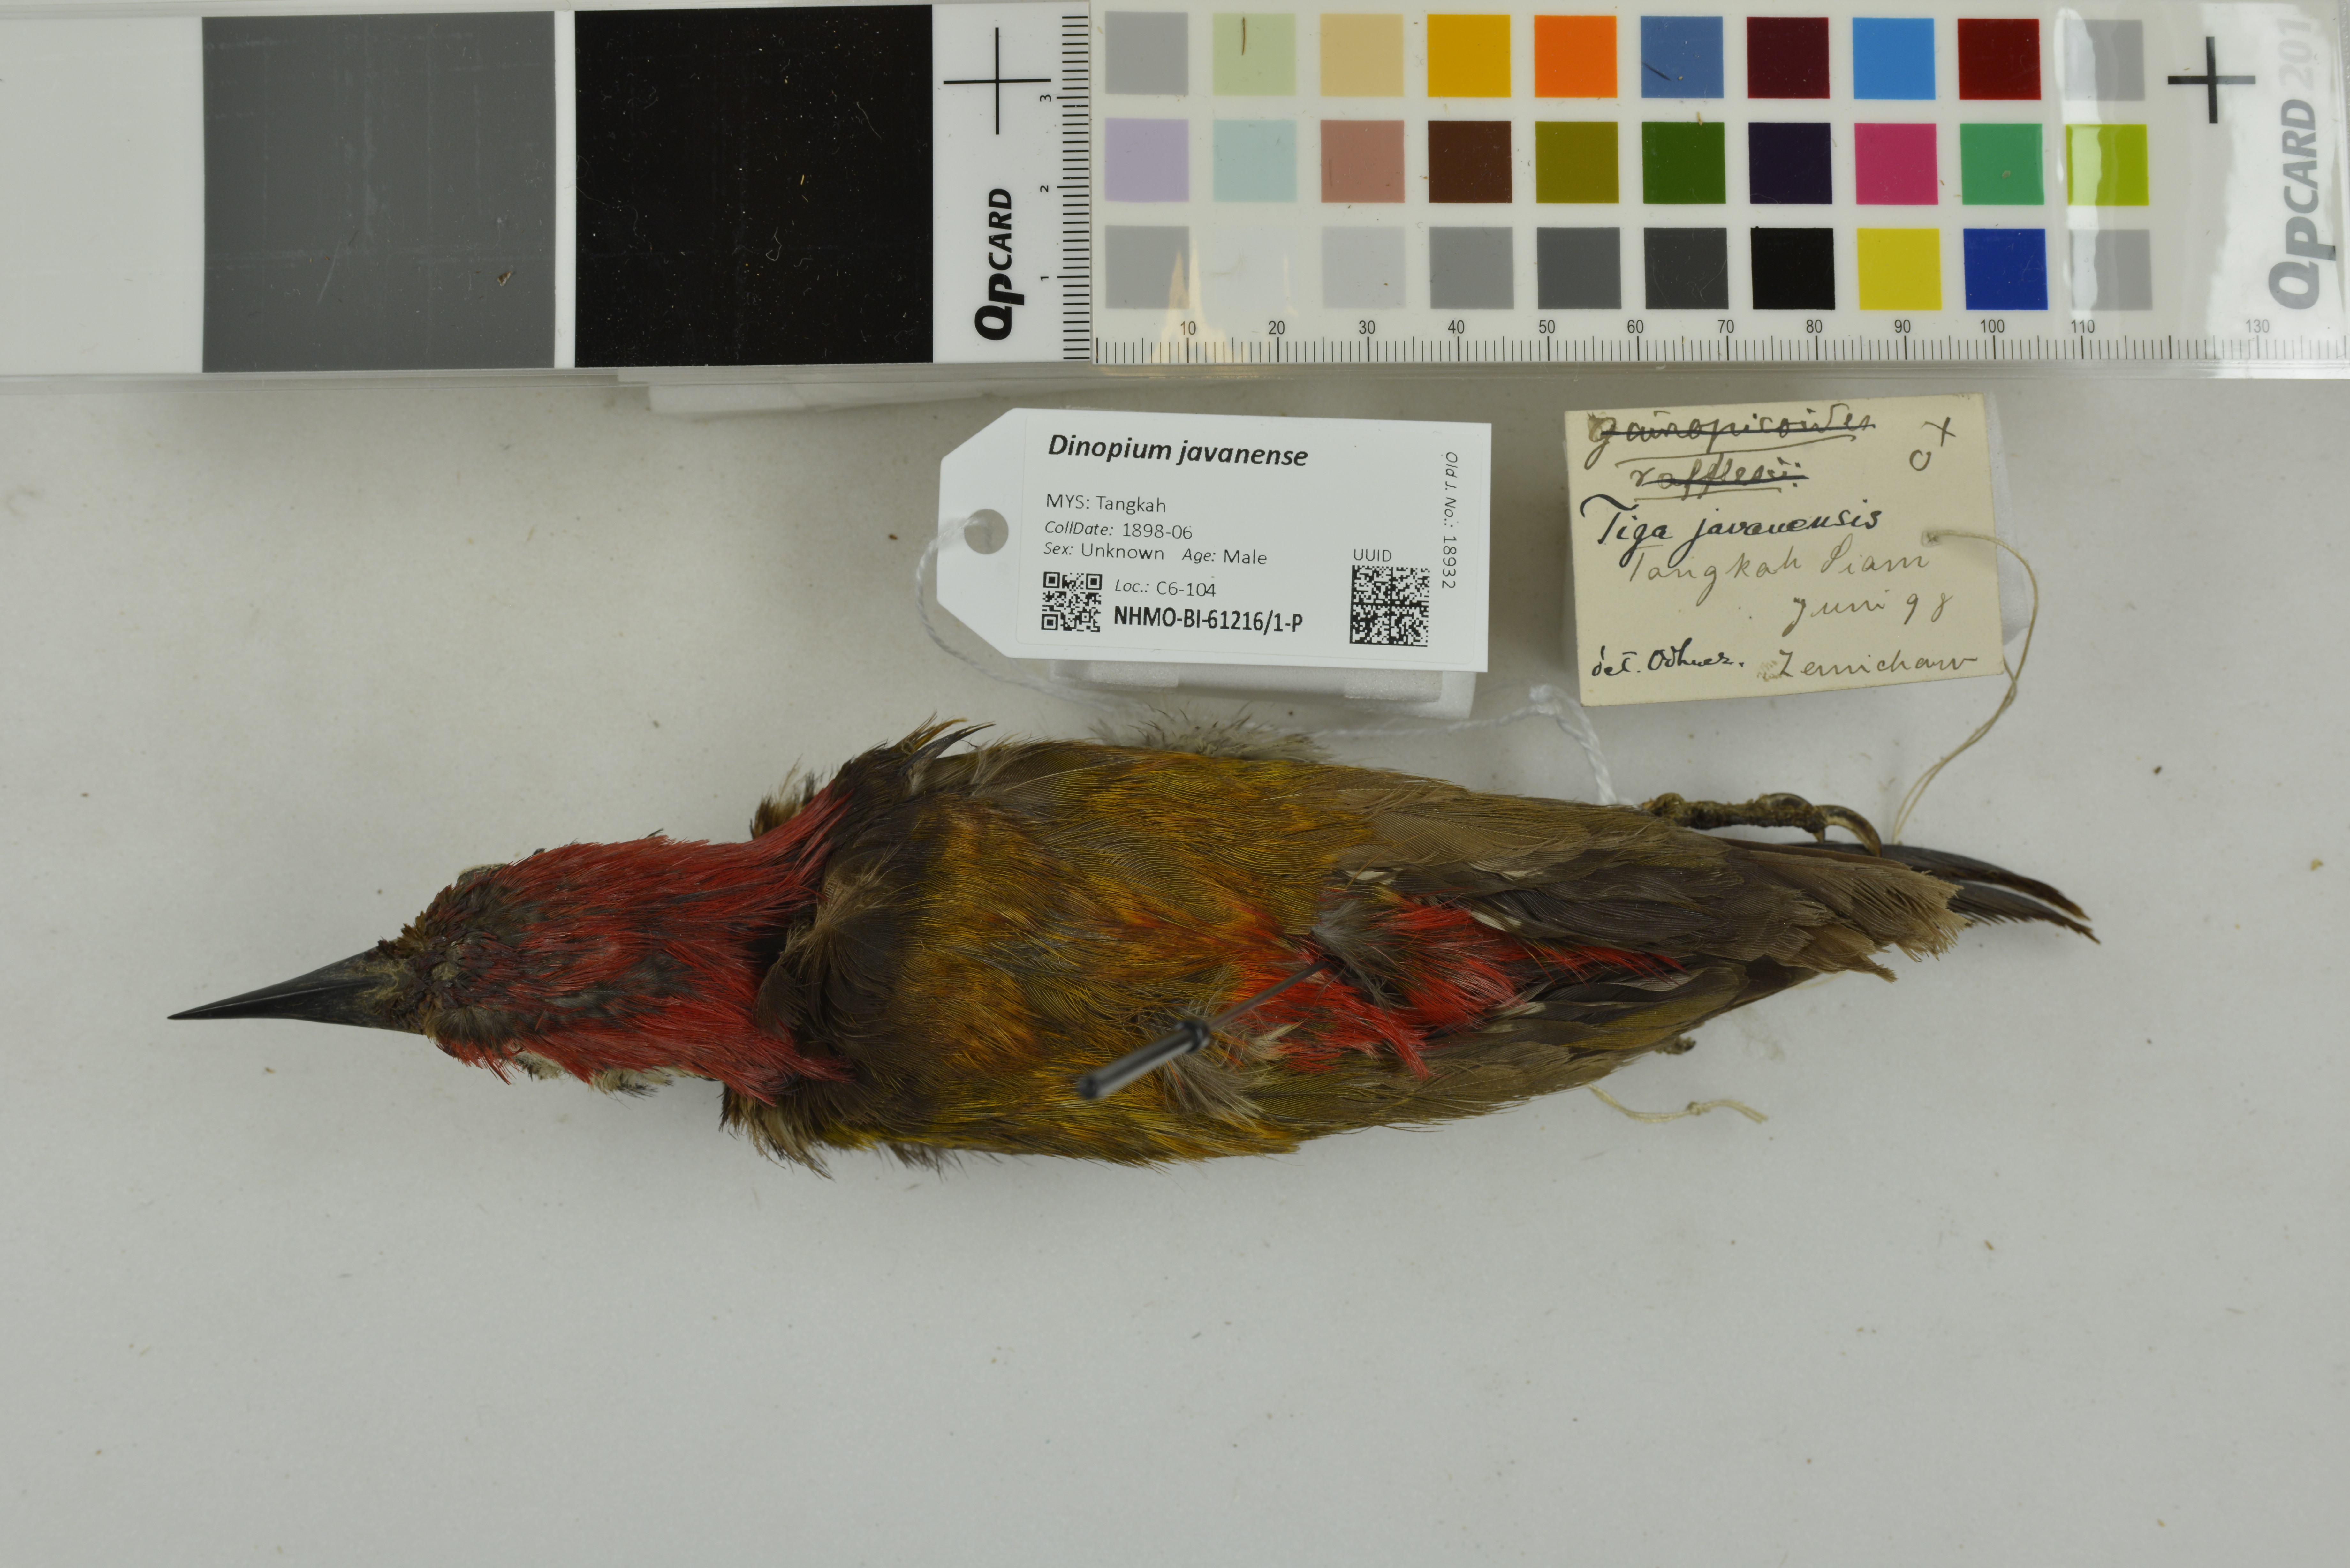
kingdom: Animalia
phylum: Chordata
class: Aves
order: Piciformes
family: Picidae
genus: Dinopium
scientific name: Dinopium javanense
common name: Common flameback
